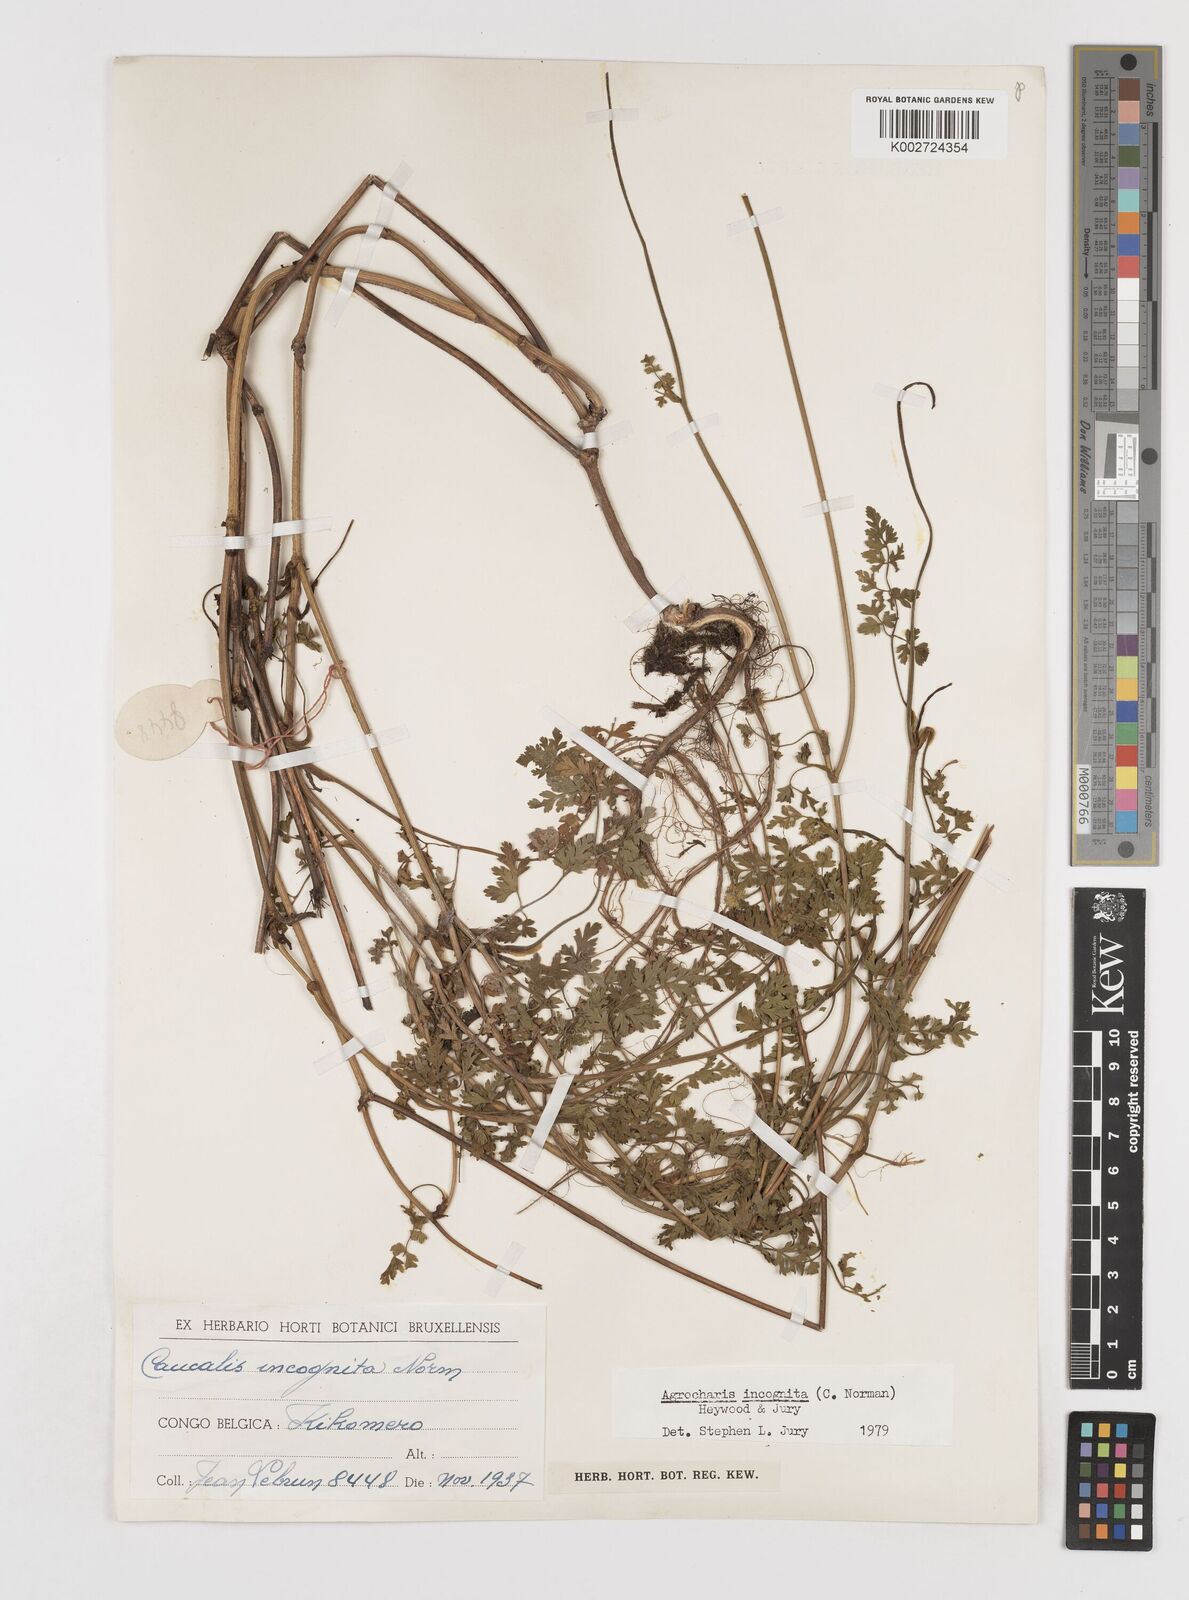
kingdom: Plantae
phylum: Tracheophyta
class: Magnoliopsida
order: Apiales
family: Apiaceae
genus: Daucus
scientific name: Daucus incognitus
